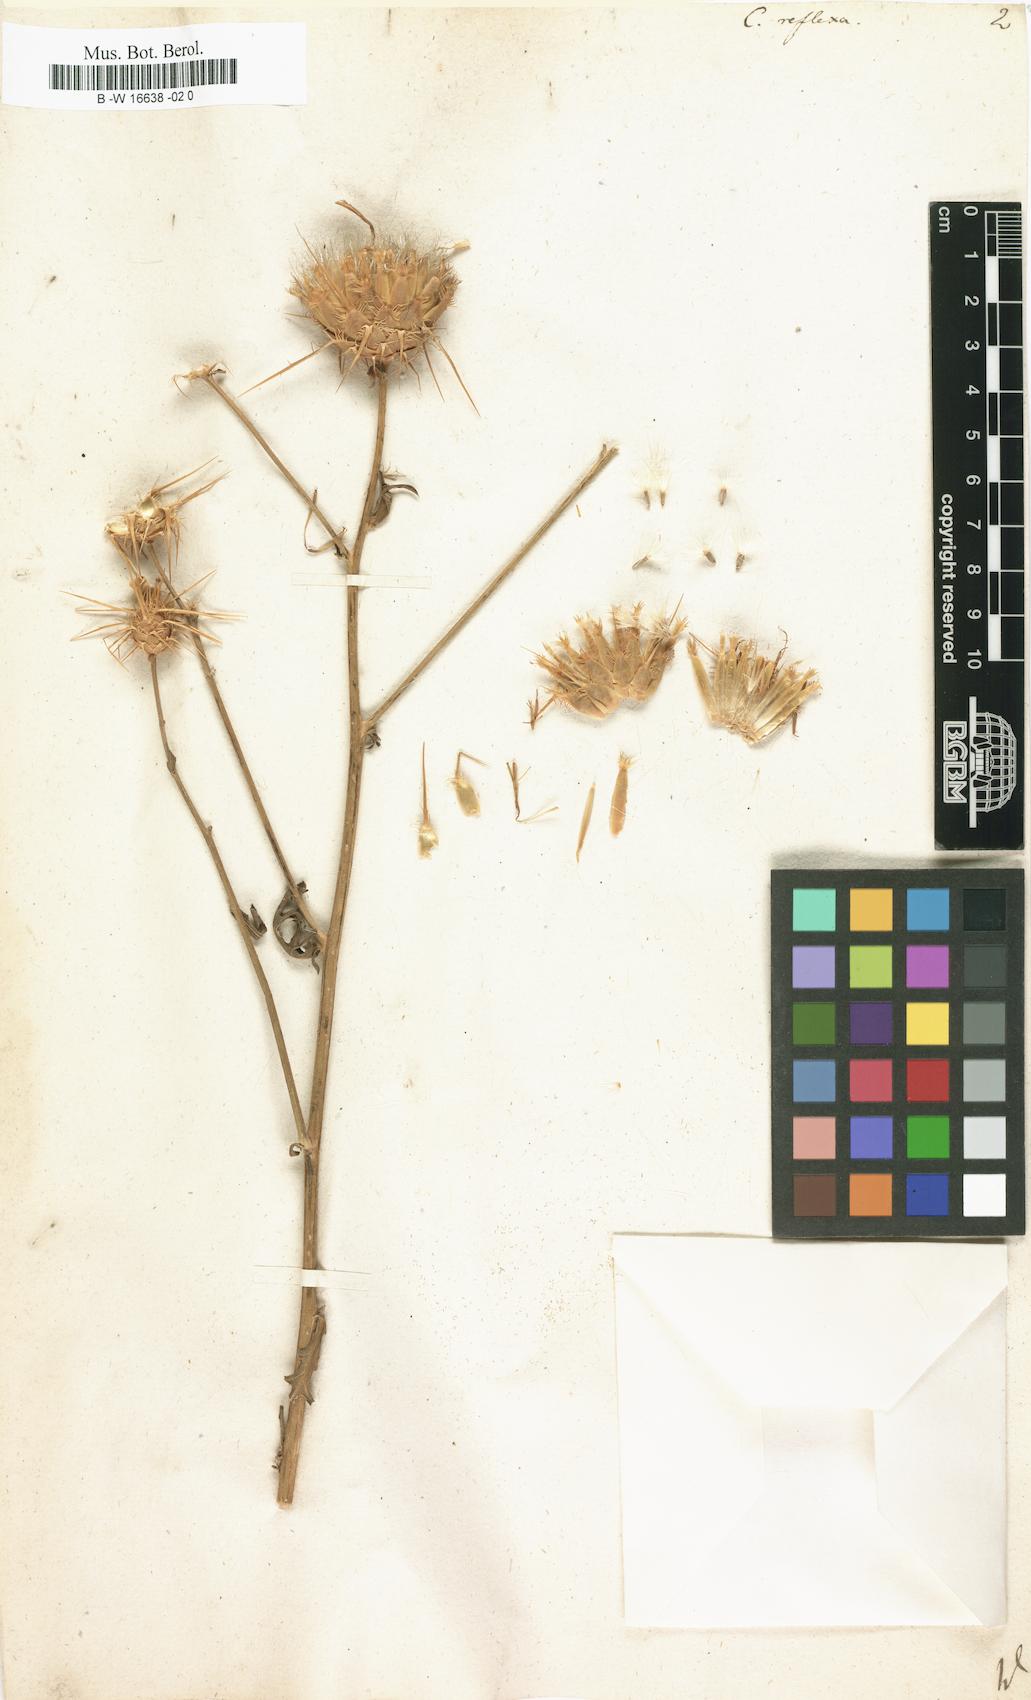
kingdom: Plantae
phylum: Tracheophyta
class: Magnoliopsida
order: Asterales
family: Asteraceae
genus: Centaurea
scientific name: Centaurea reflexa
